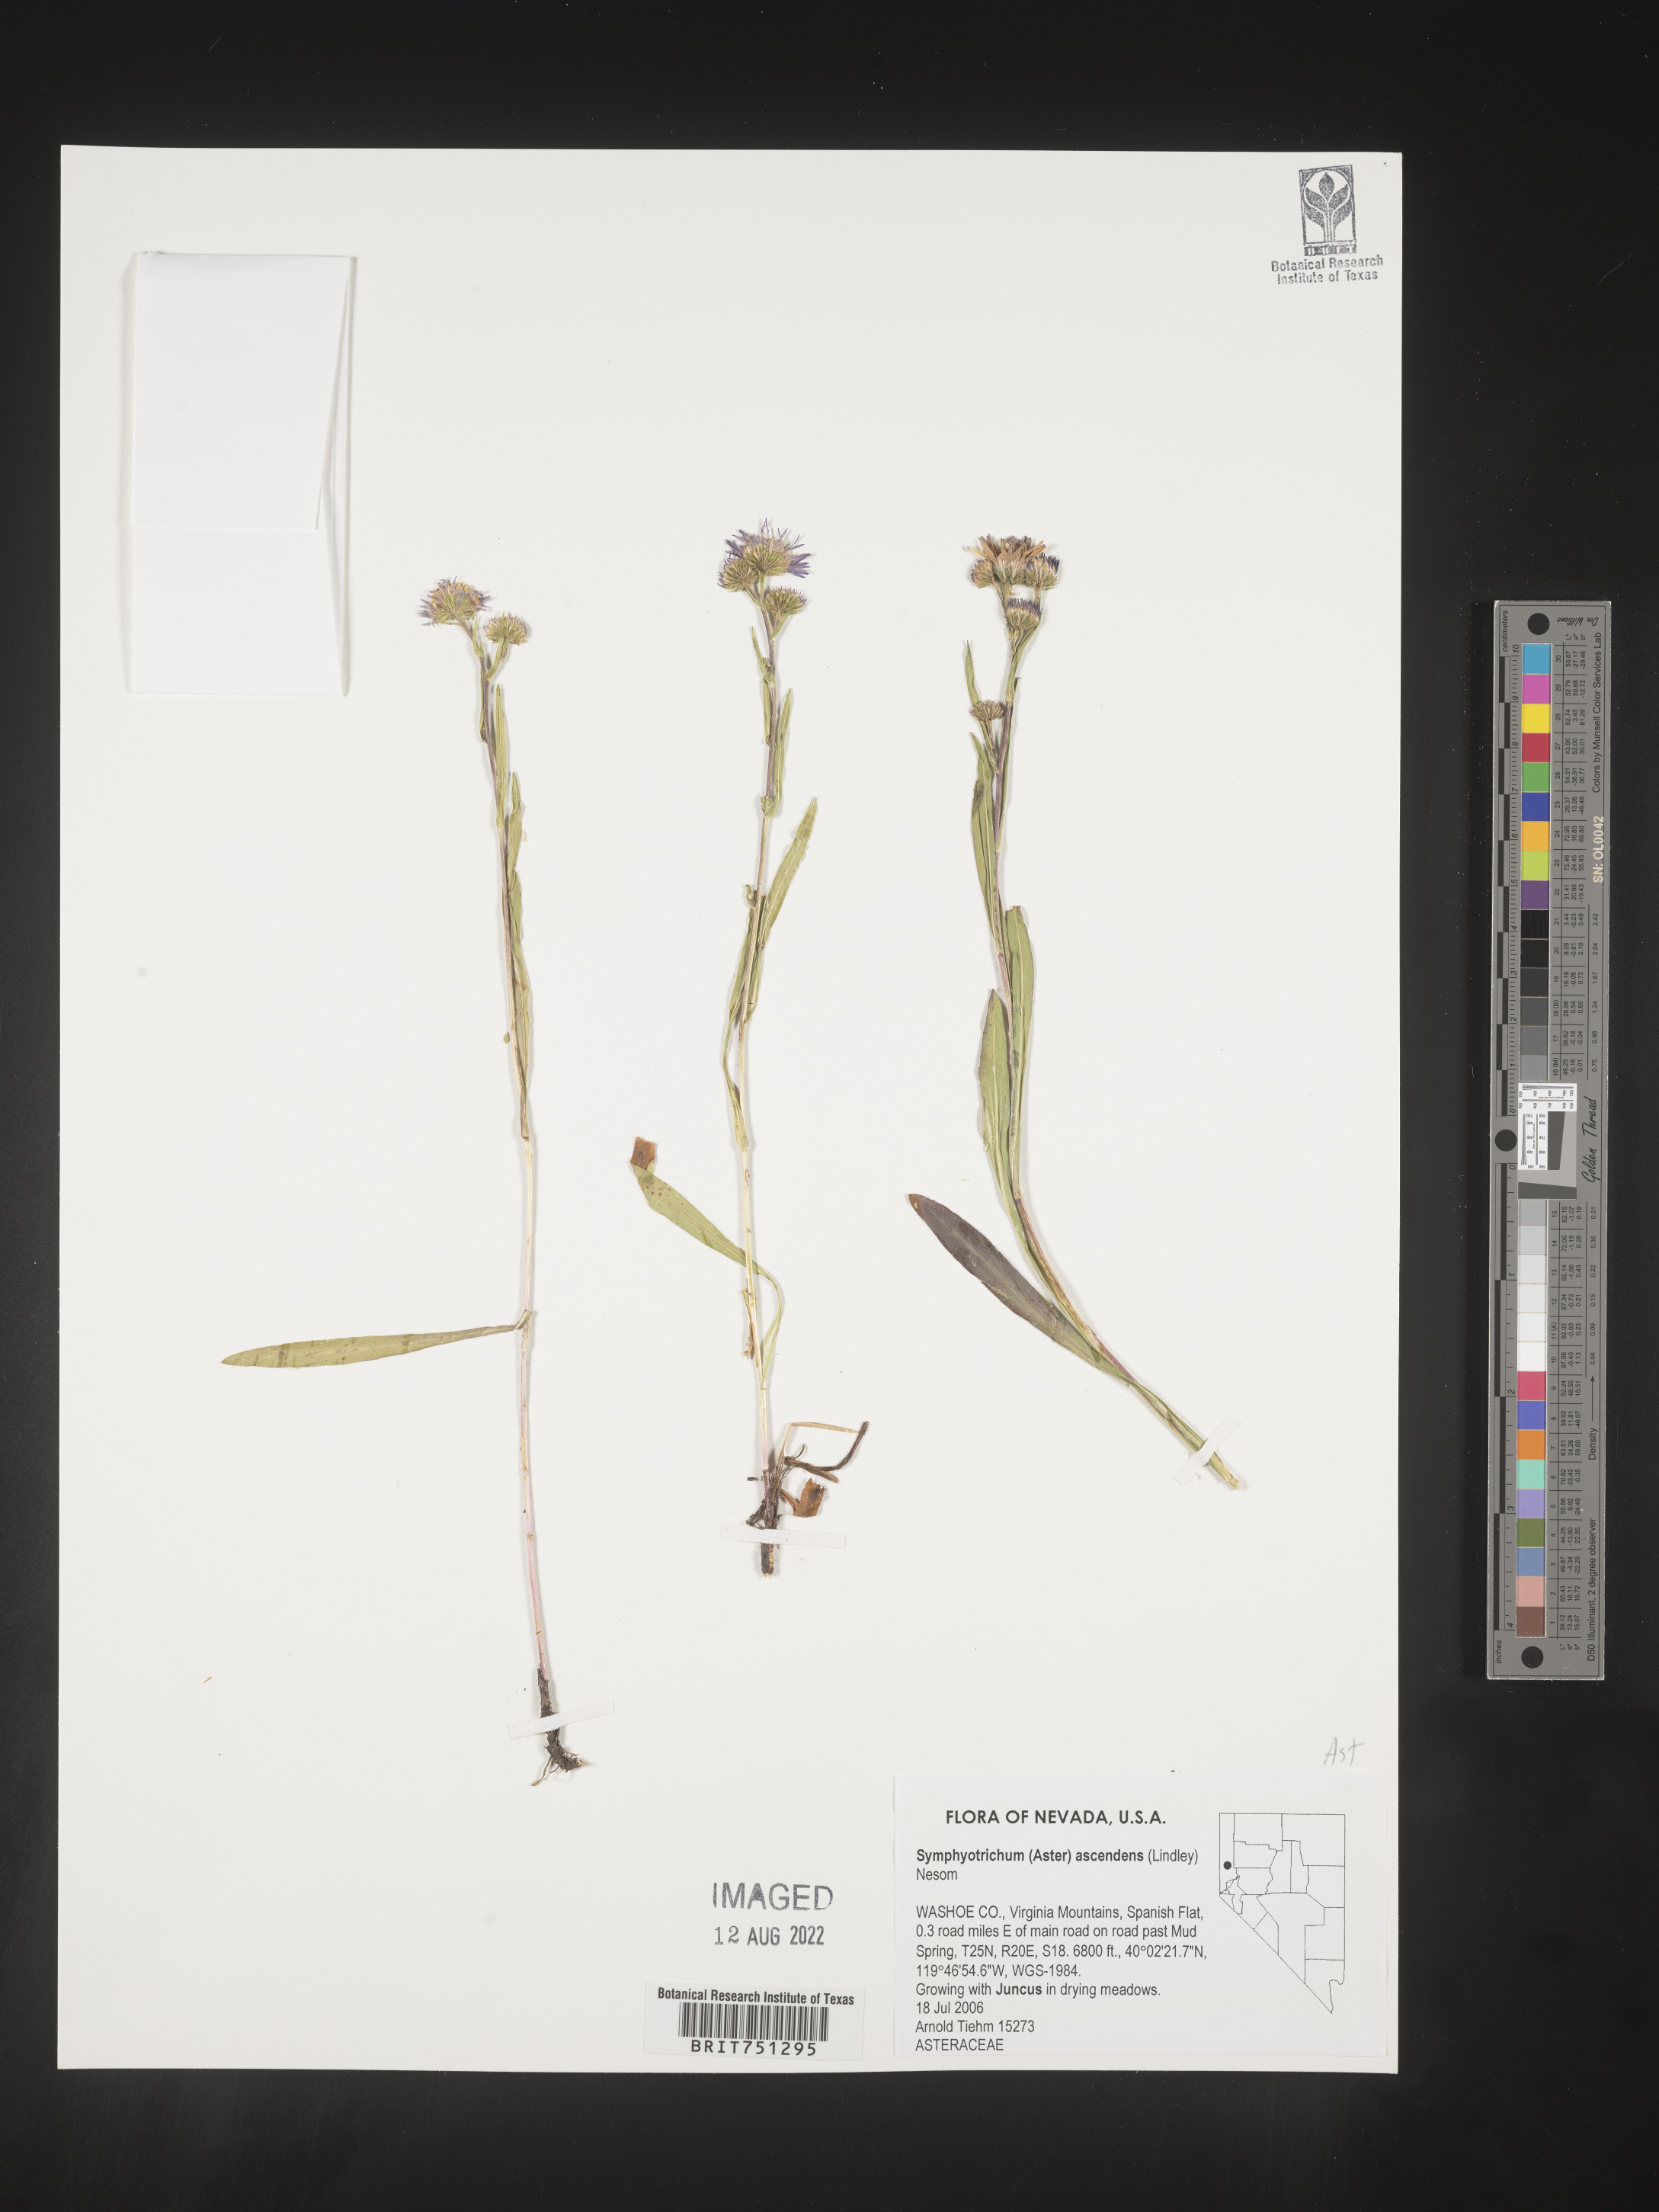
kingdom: Plantae
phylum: Tracheophyta
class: Magnoliopsida
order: Asterales
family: Asteraceae
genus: Symphyotrichum
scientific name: Symphyotrichum ascendens
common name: Intermountain aster
